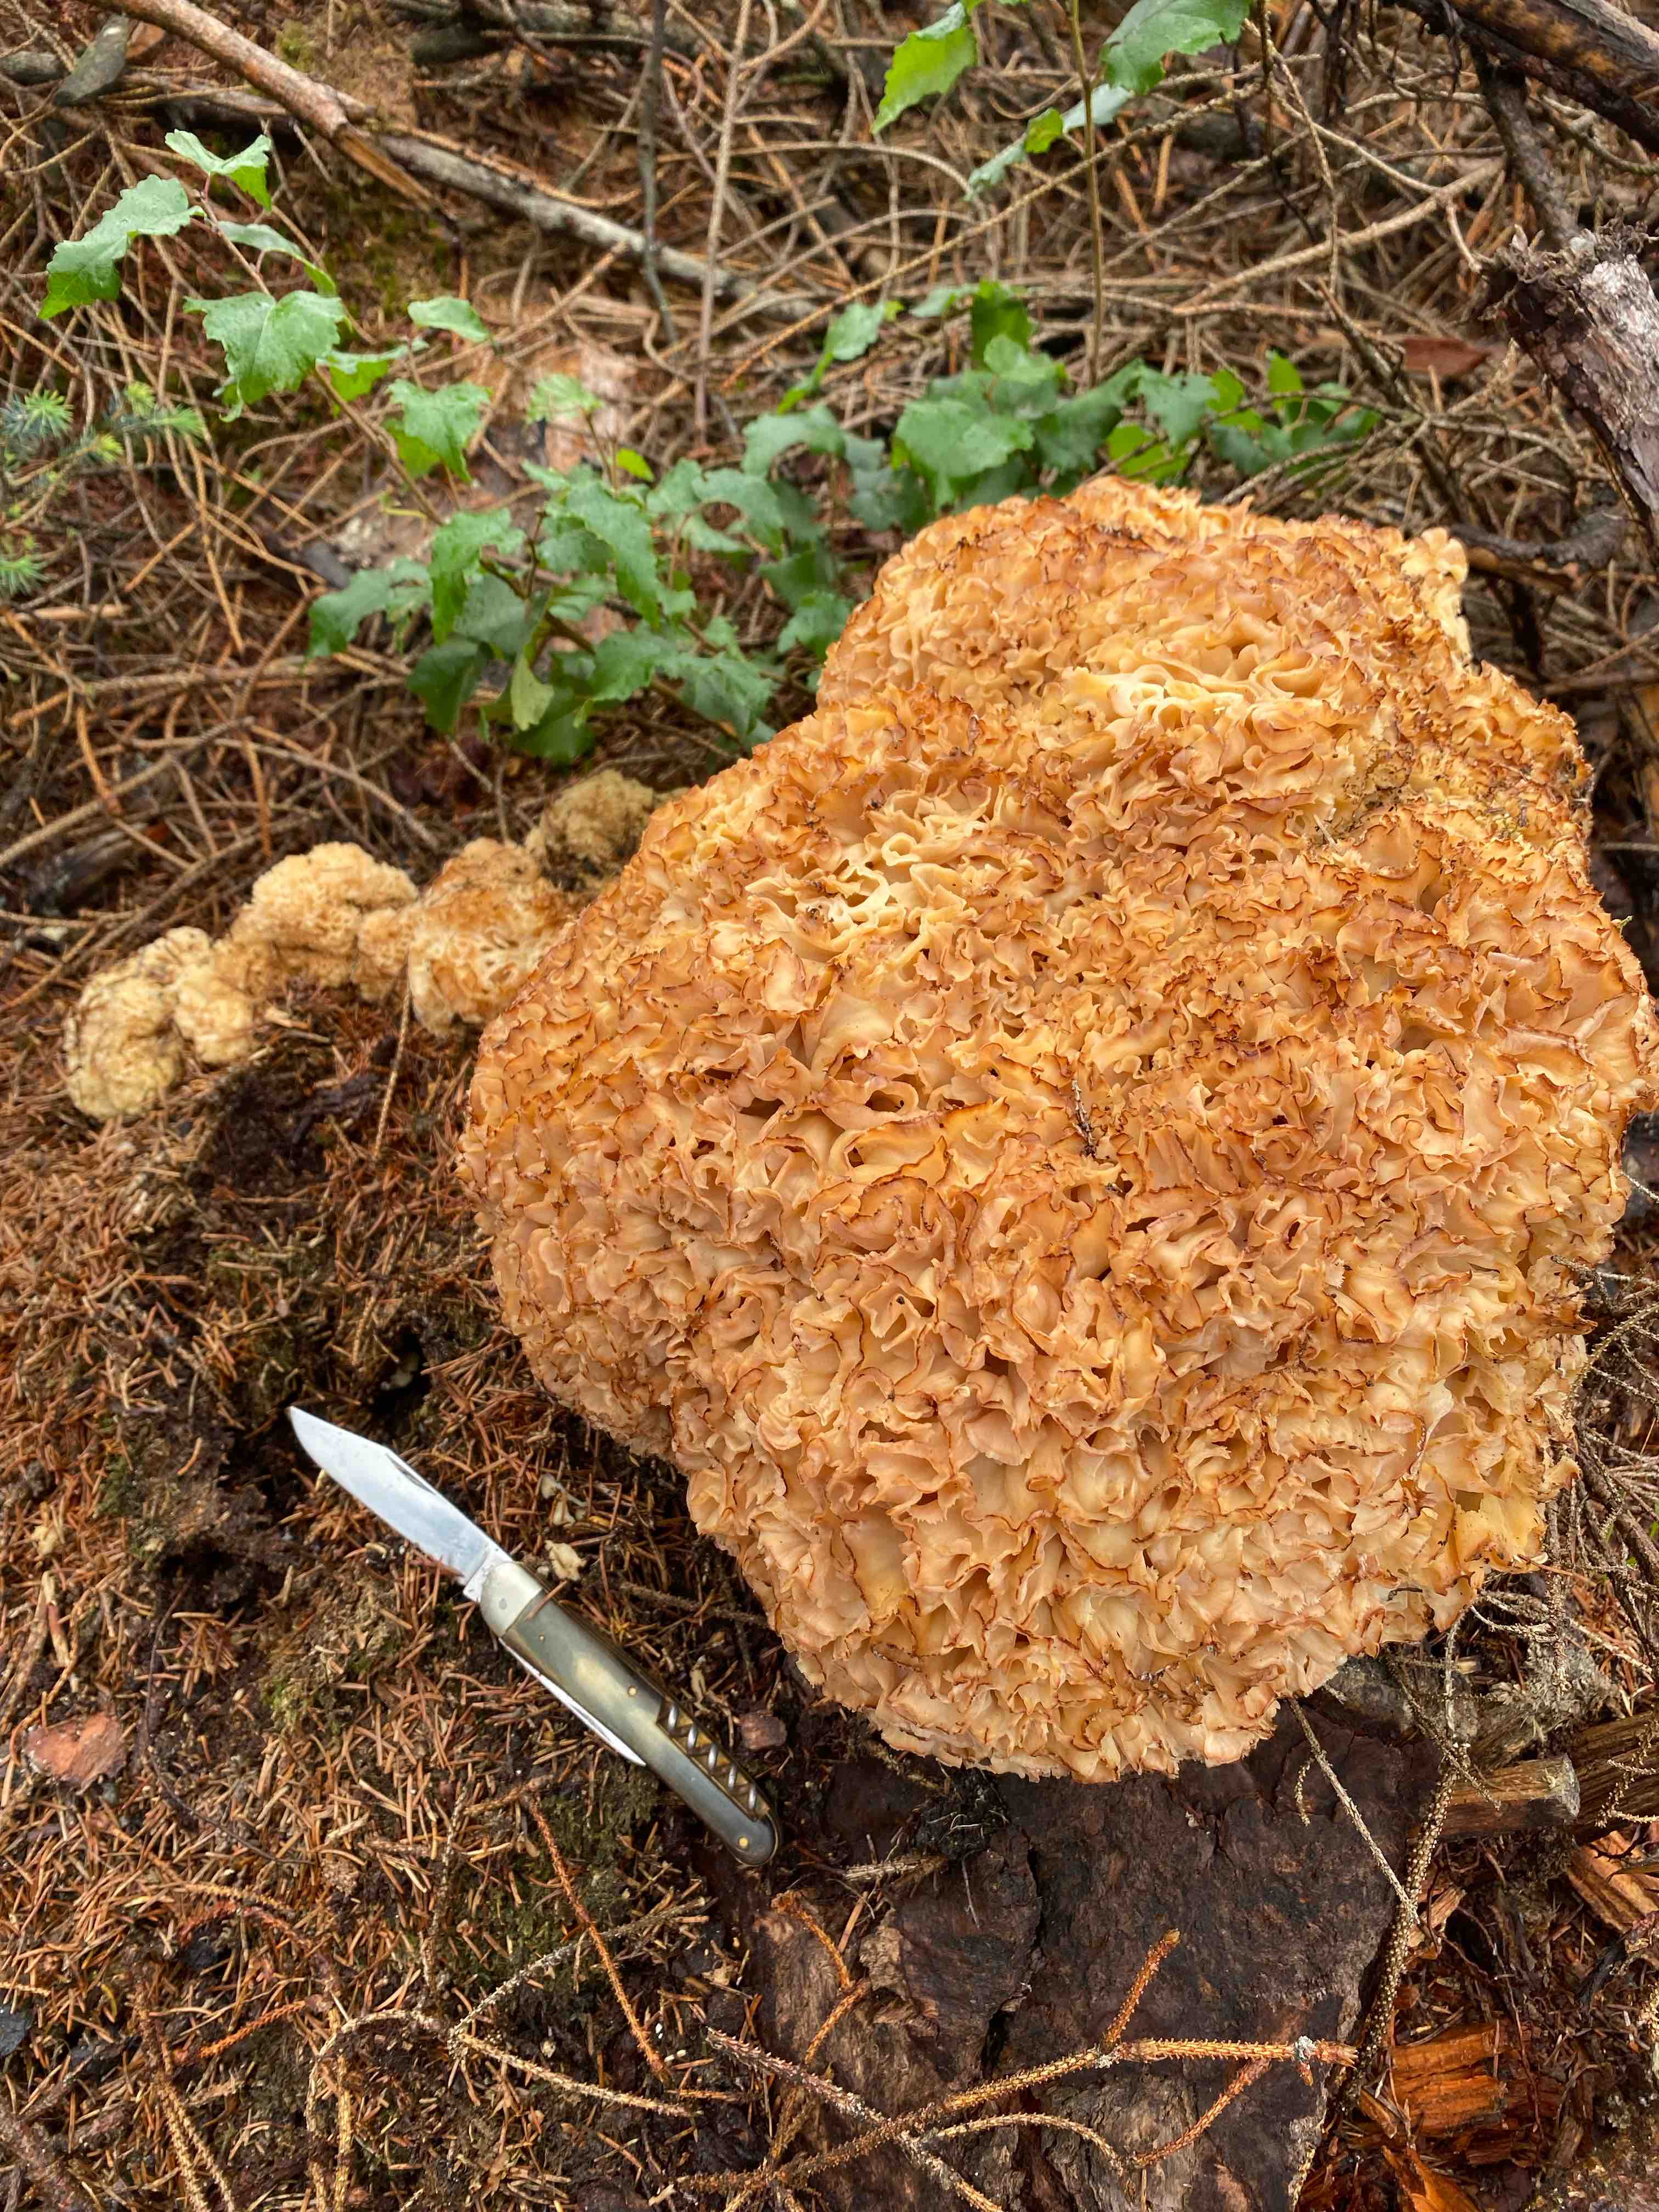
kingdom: Fungi
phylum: Basidiomycota
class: Agaricomycetes
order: Polyporales
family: Sparassidaceae
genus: Sparassis
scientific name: Sparassis crispa
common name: kruset blomkålssvamp
